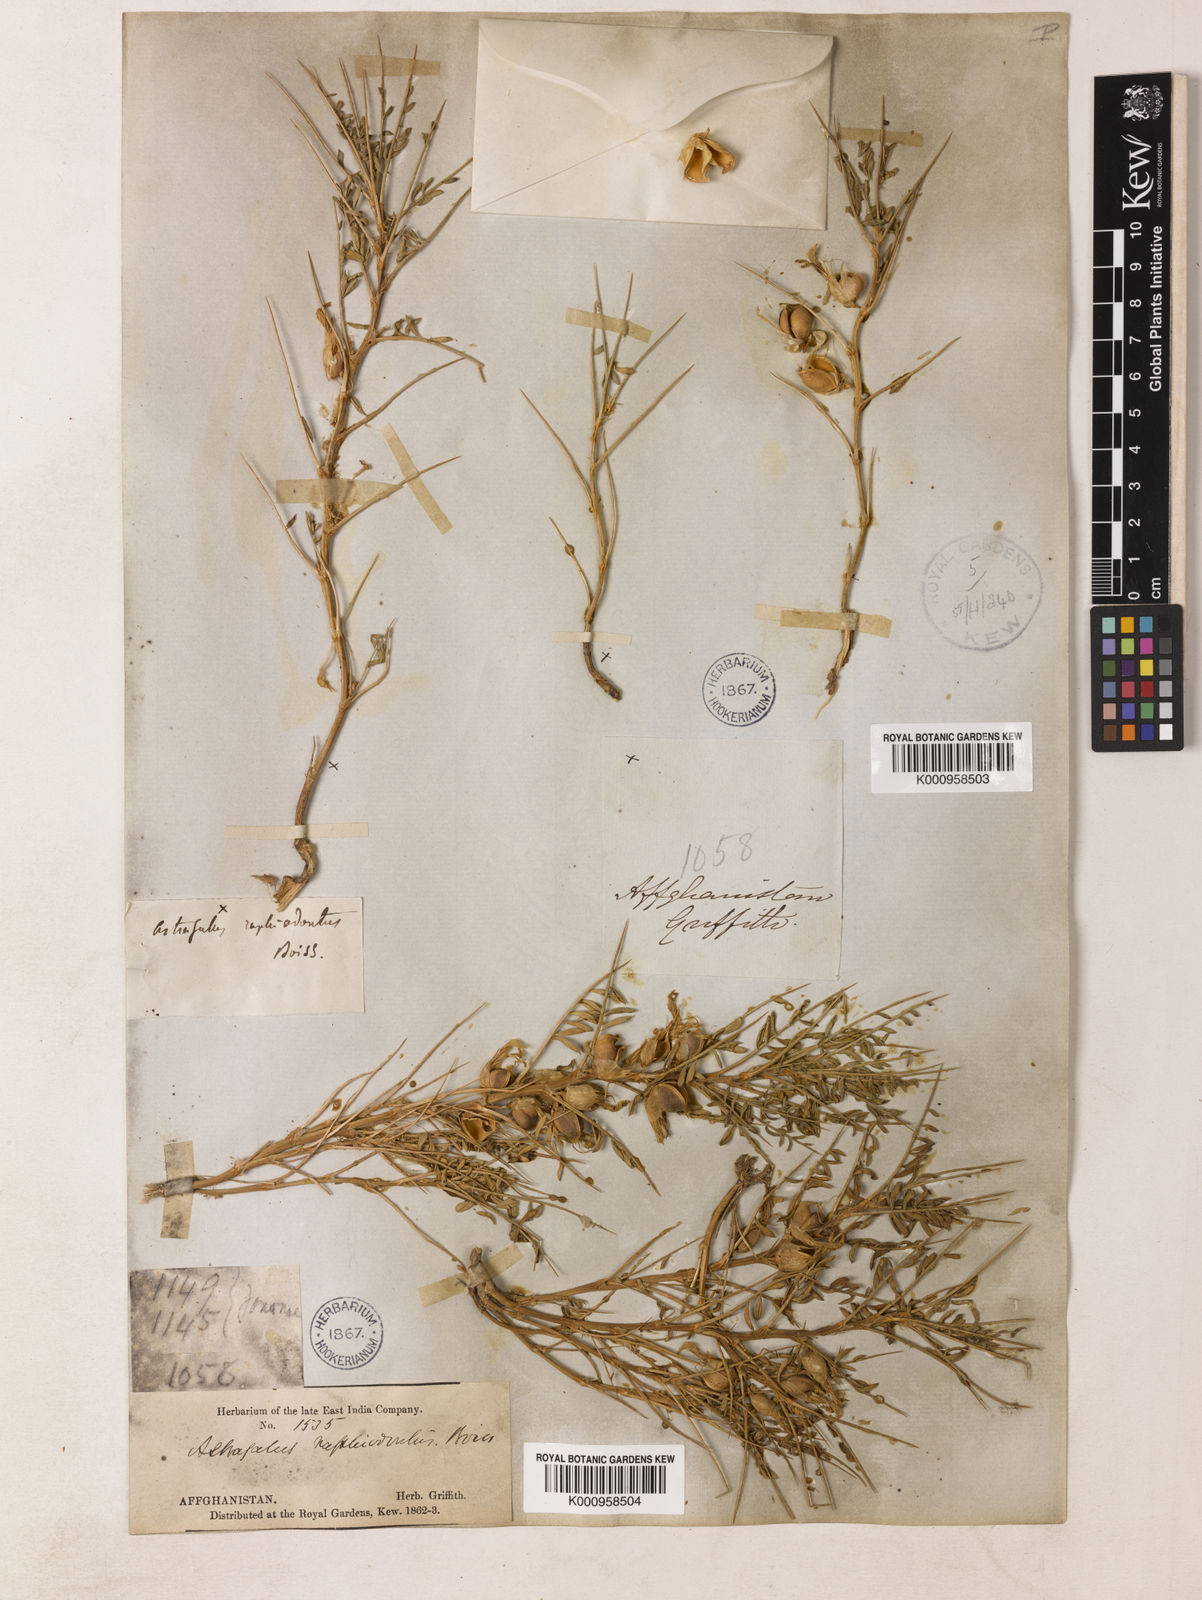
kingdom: Plantae
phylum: Tracheophyta
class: Magnoliopsida
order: Fabales
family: Fabaceae
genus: Astragalus
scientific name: Astragalus raphiodontus
